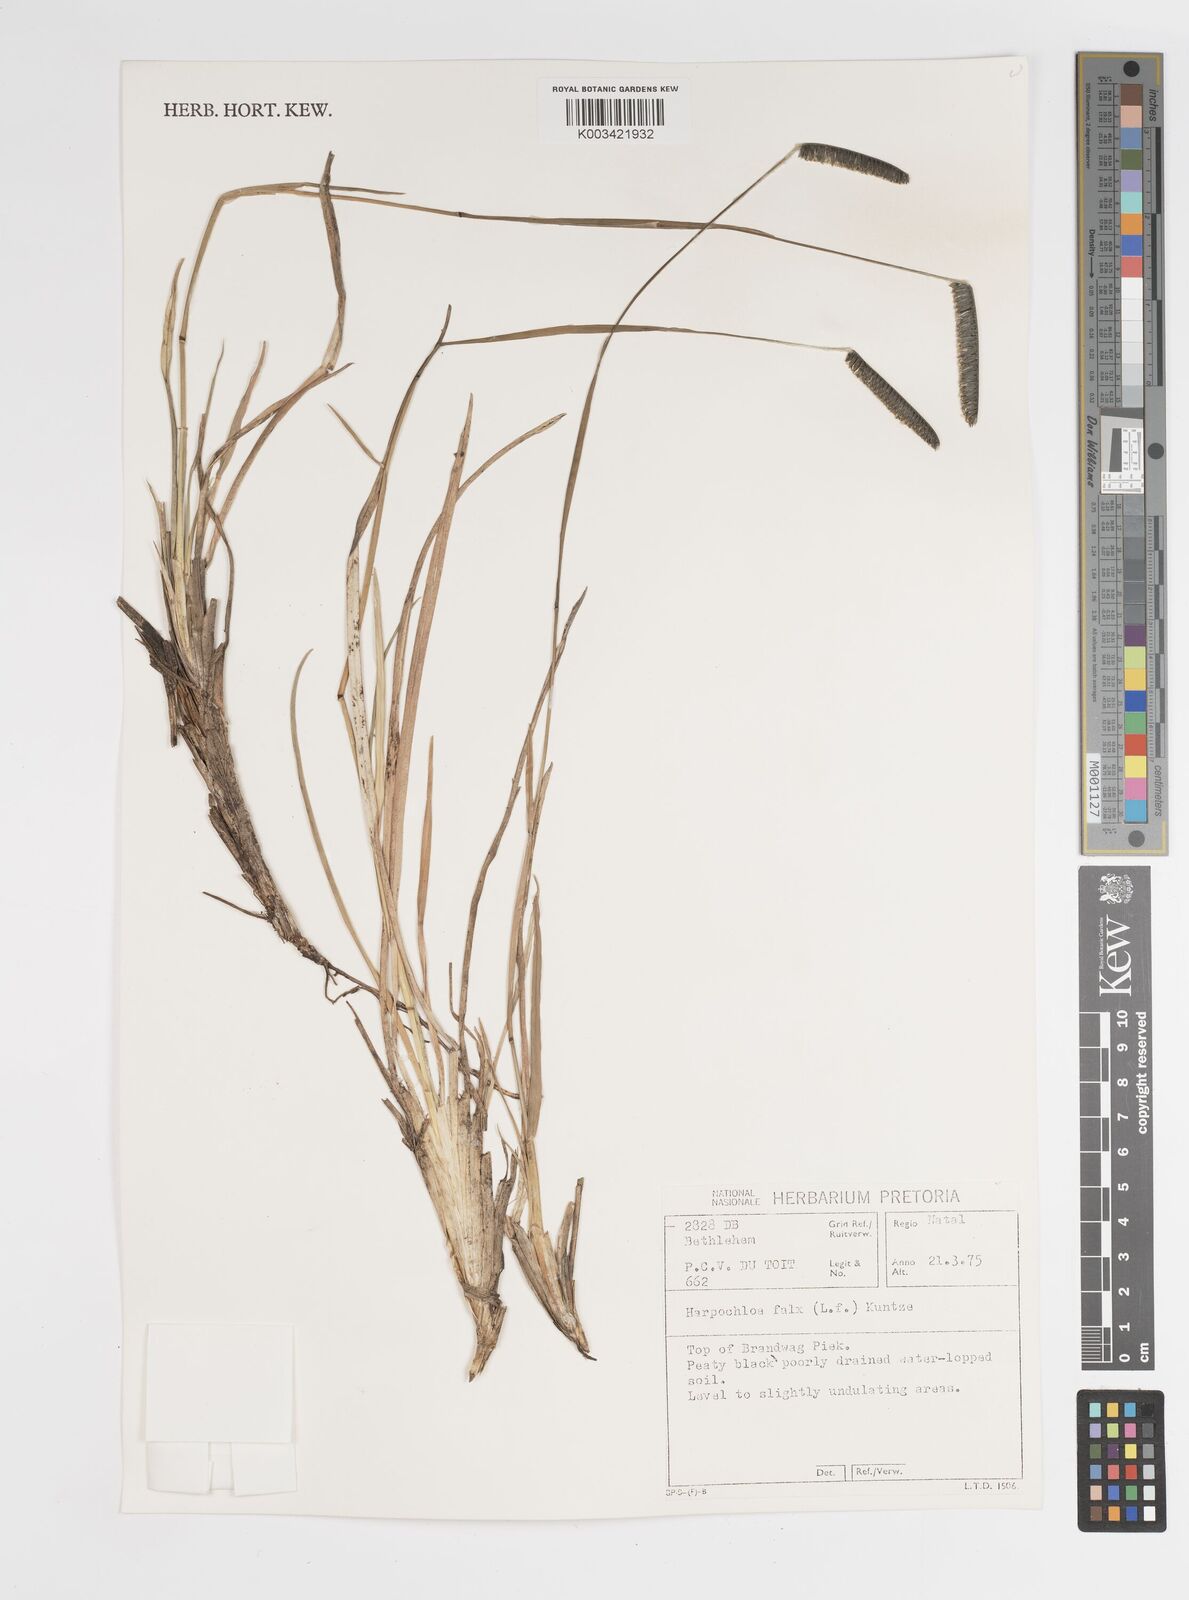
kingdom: Plantae
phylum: Tracheophyta
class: Liliopsida
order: Poales
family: Poaceae
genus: Harpochloa
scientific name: Harpochloa falx
